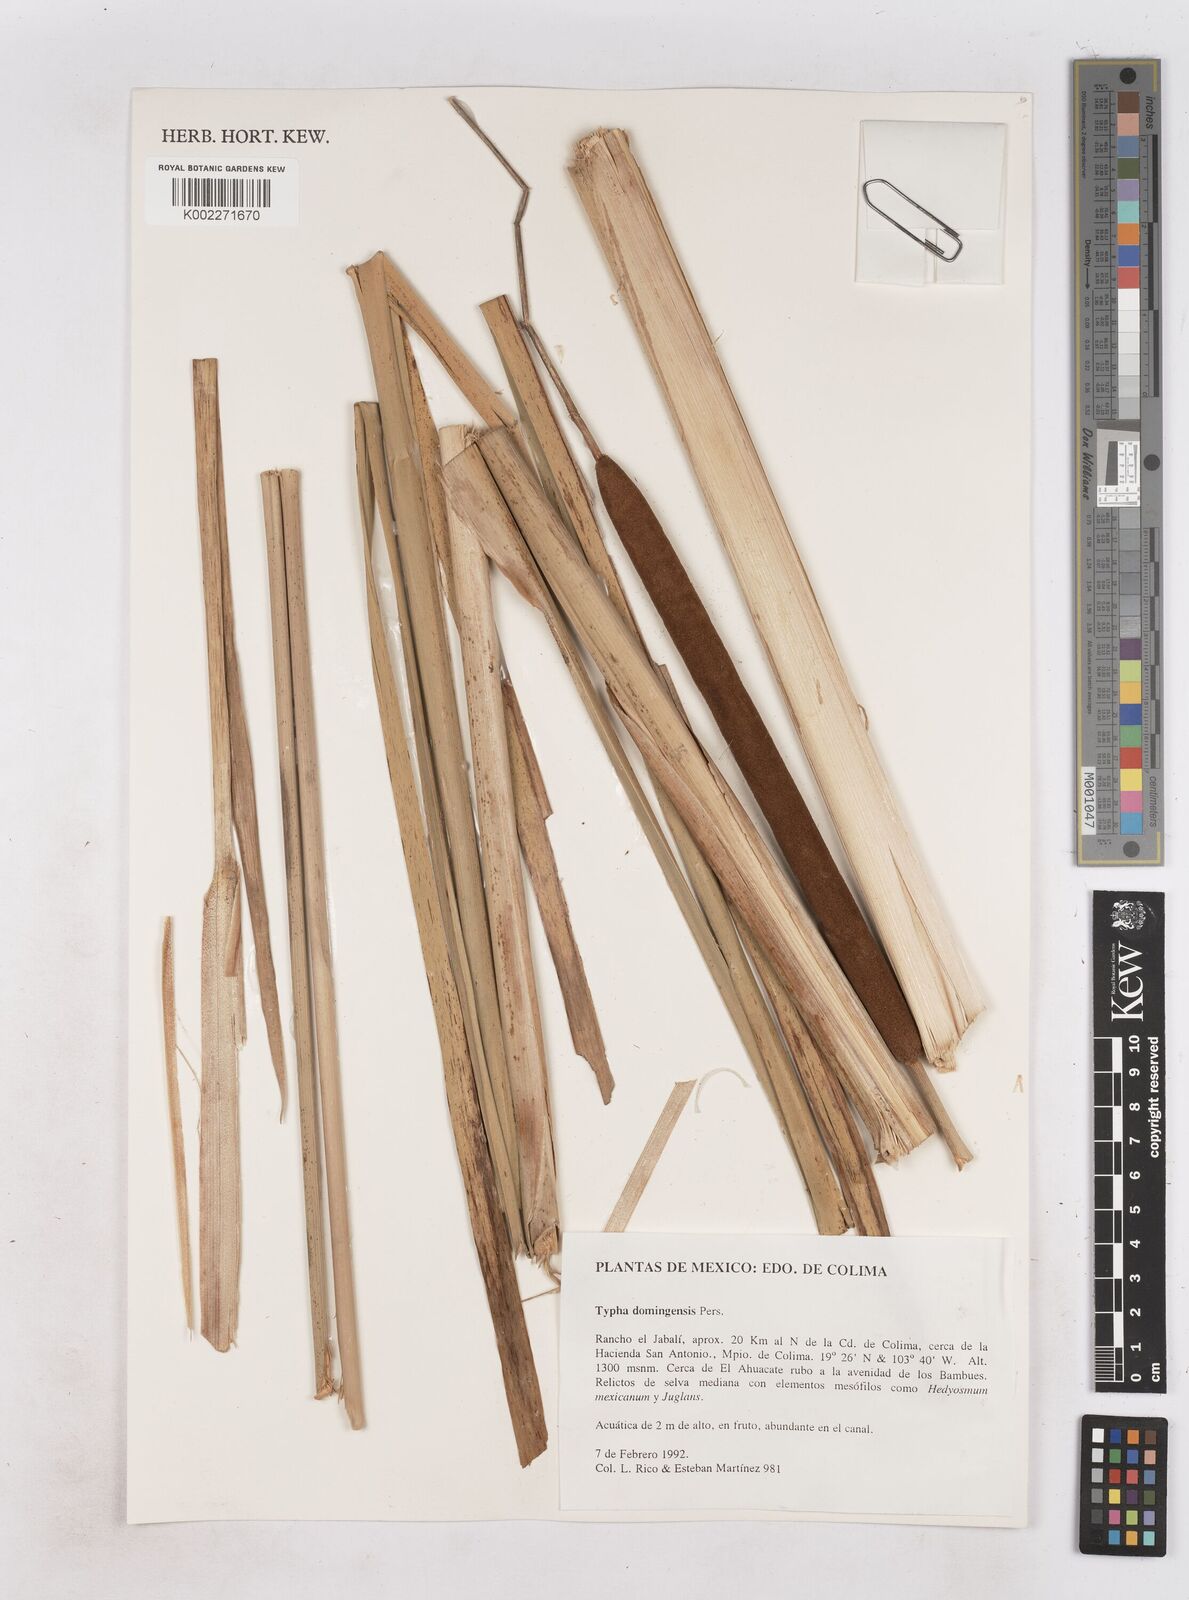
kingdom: Plantae
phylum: Tracheophyta
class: Liliopsida
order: Poales
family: Typhaceae
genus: Typha
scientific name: Typha domingensis
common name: Southern cattail
